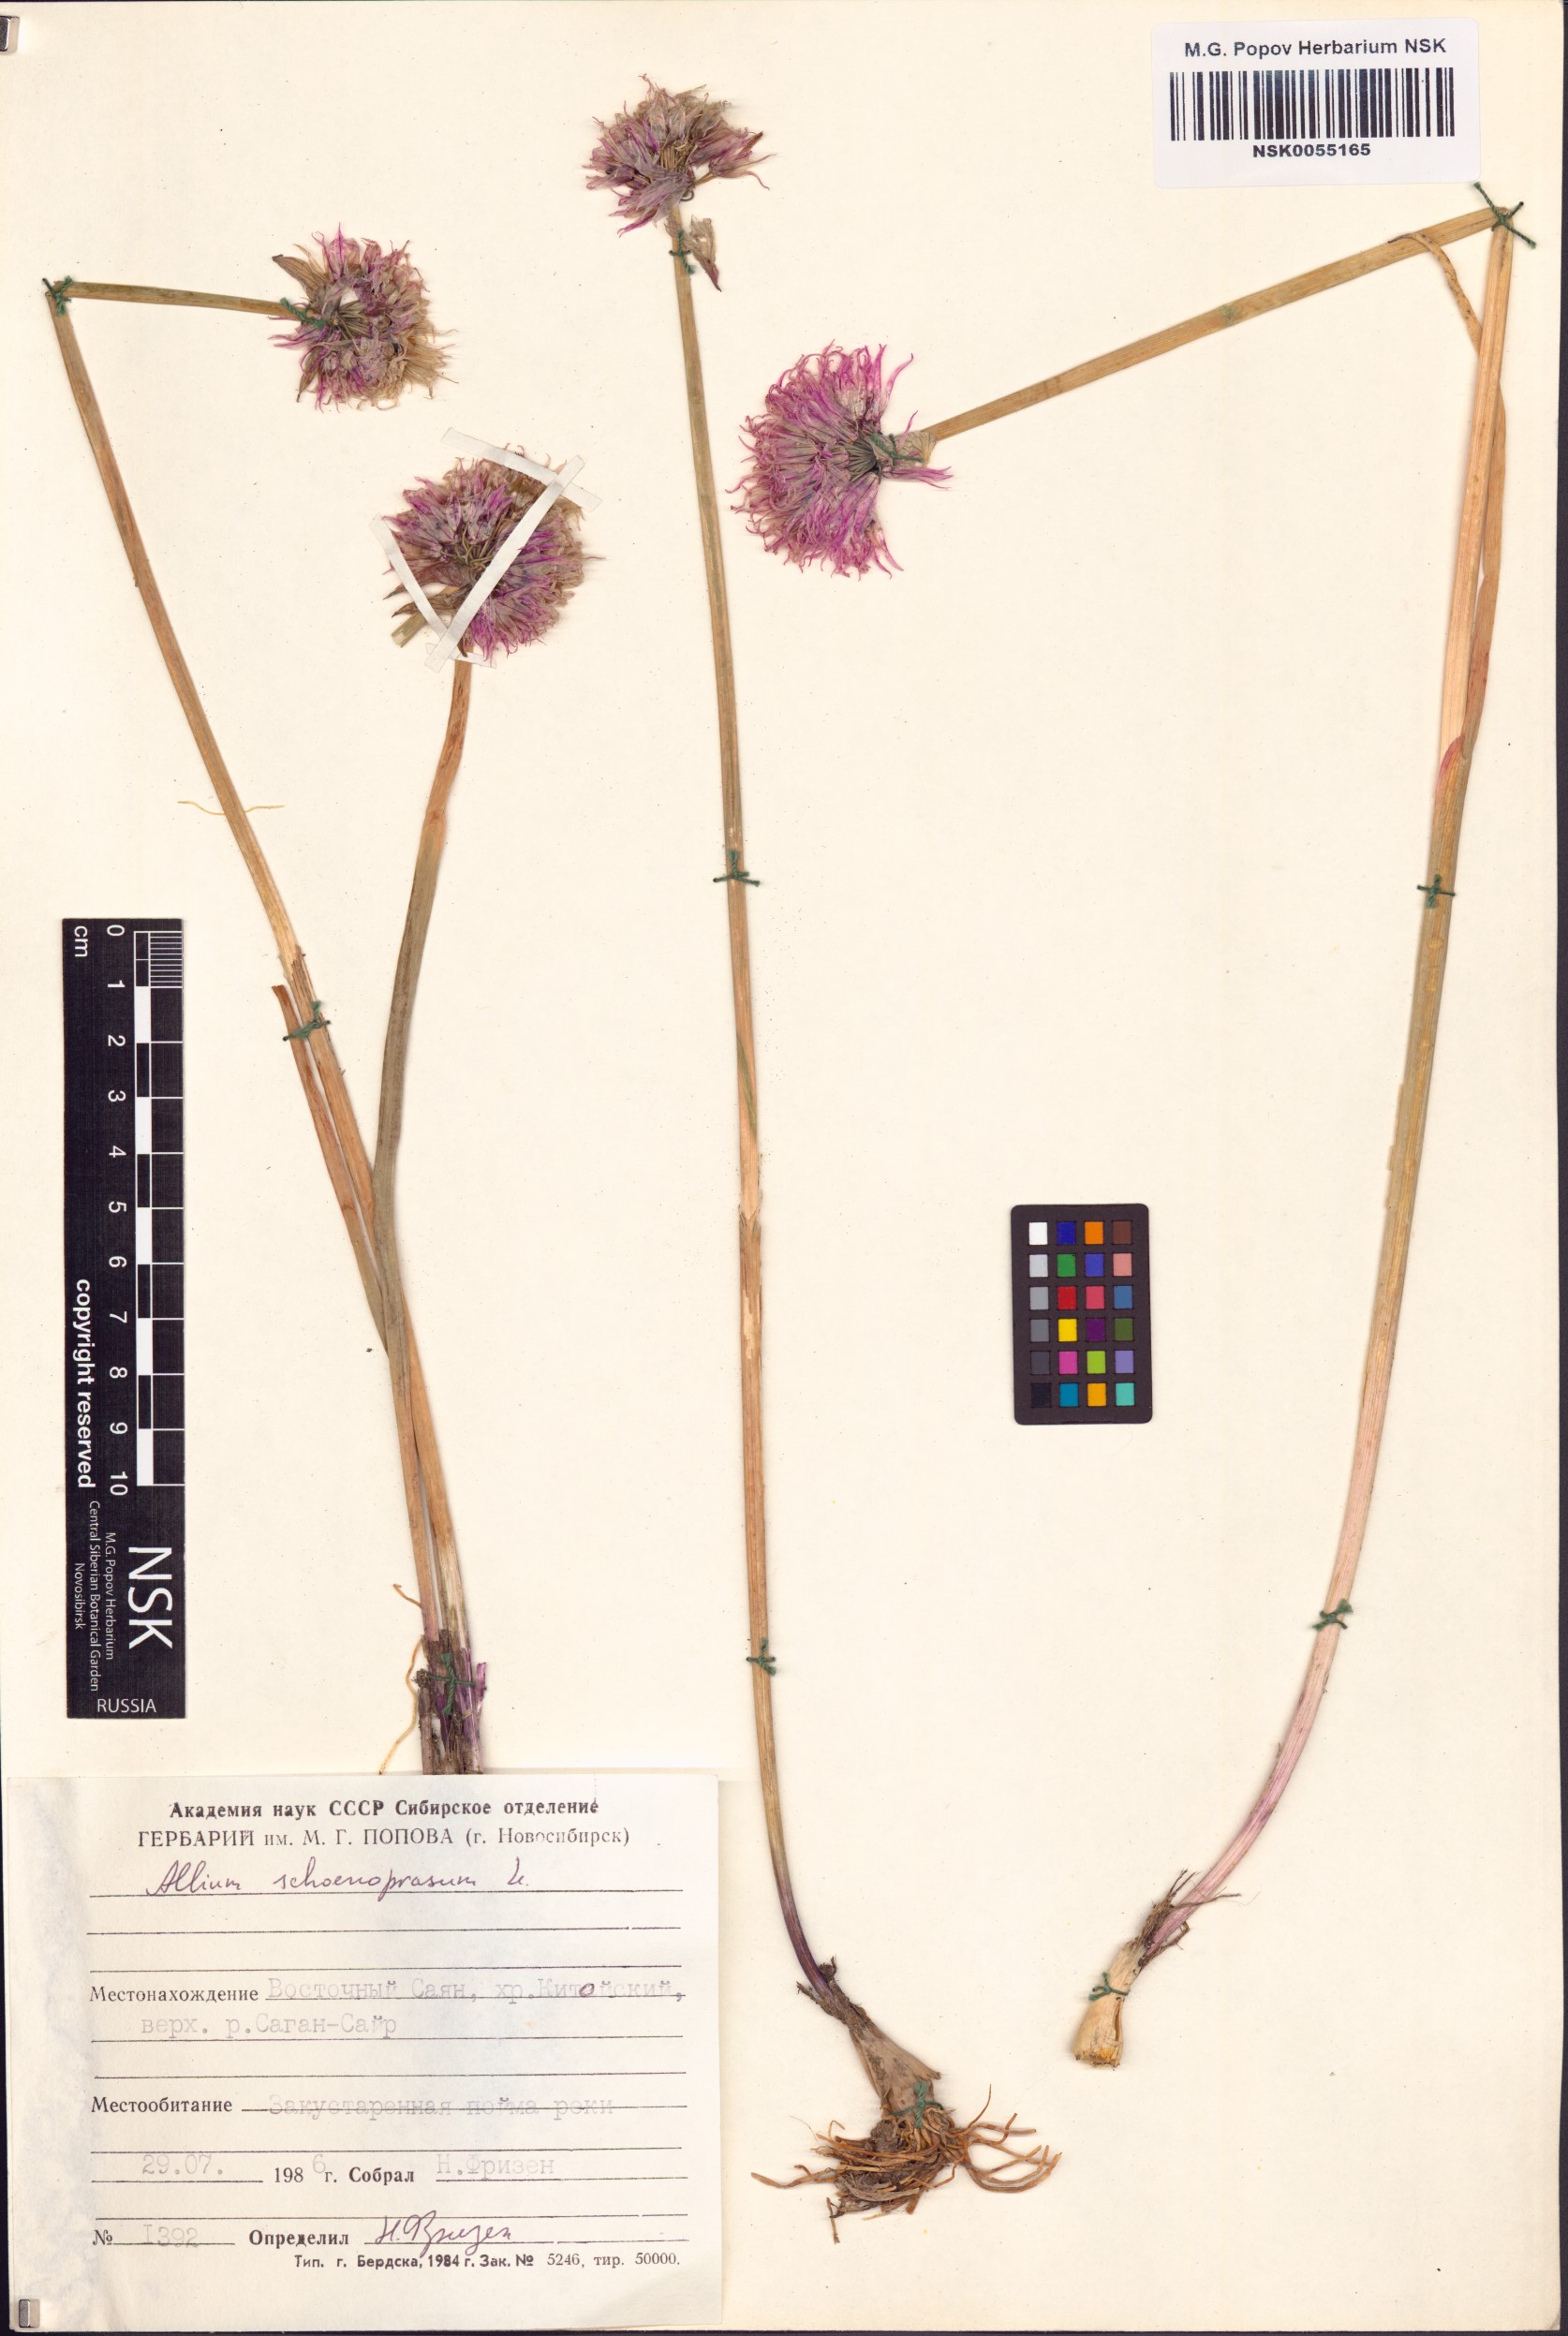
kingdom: Plantae
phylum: Tracheophyta
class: Liliopsida
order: Asparagales
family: Amaryllidaceae
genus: Allium
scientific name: Allium schoenoprasum
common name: Chives
